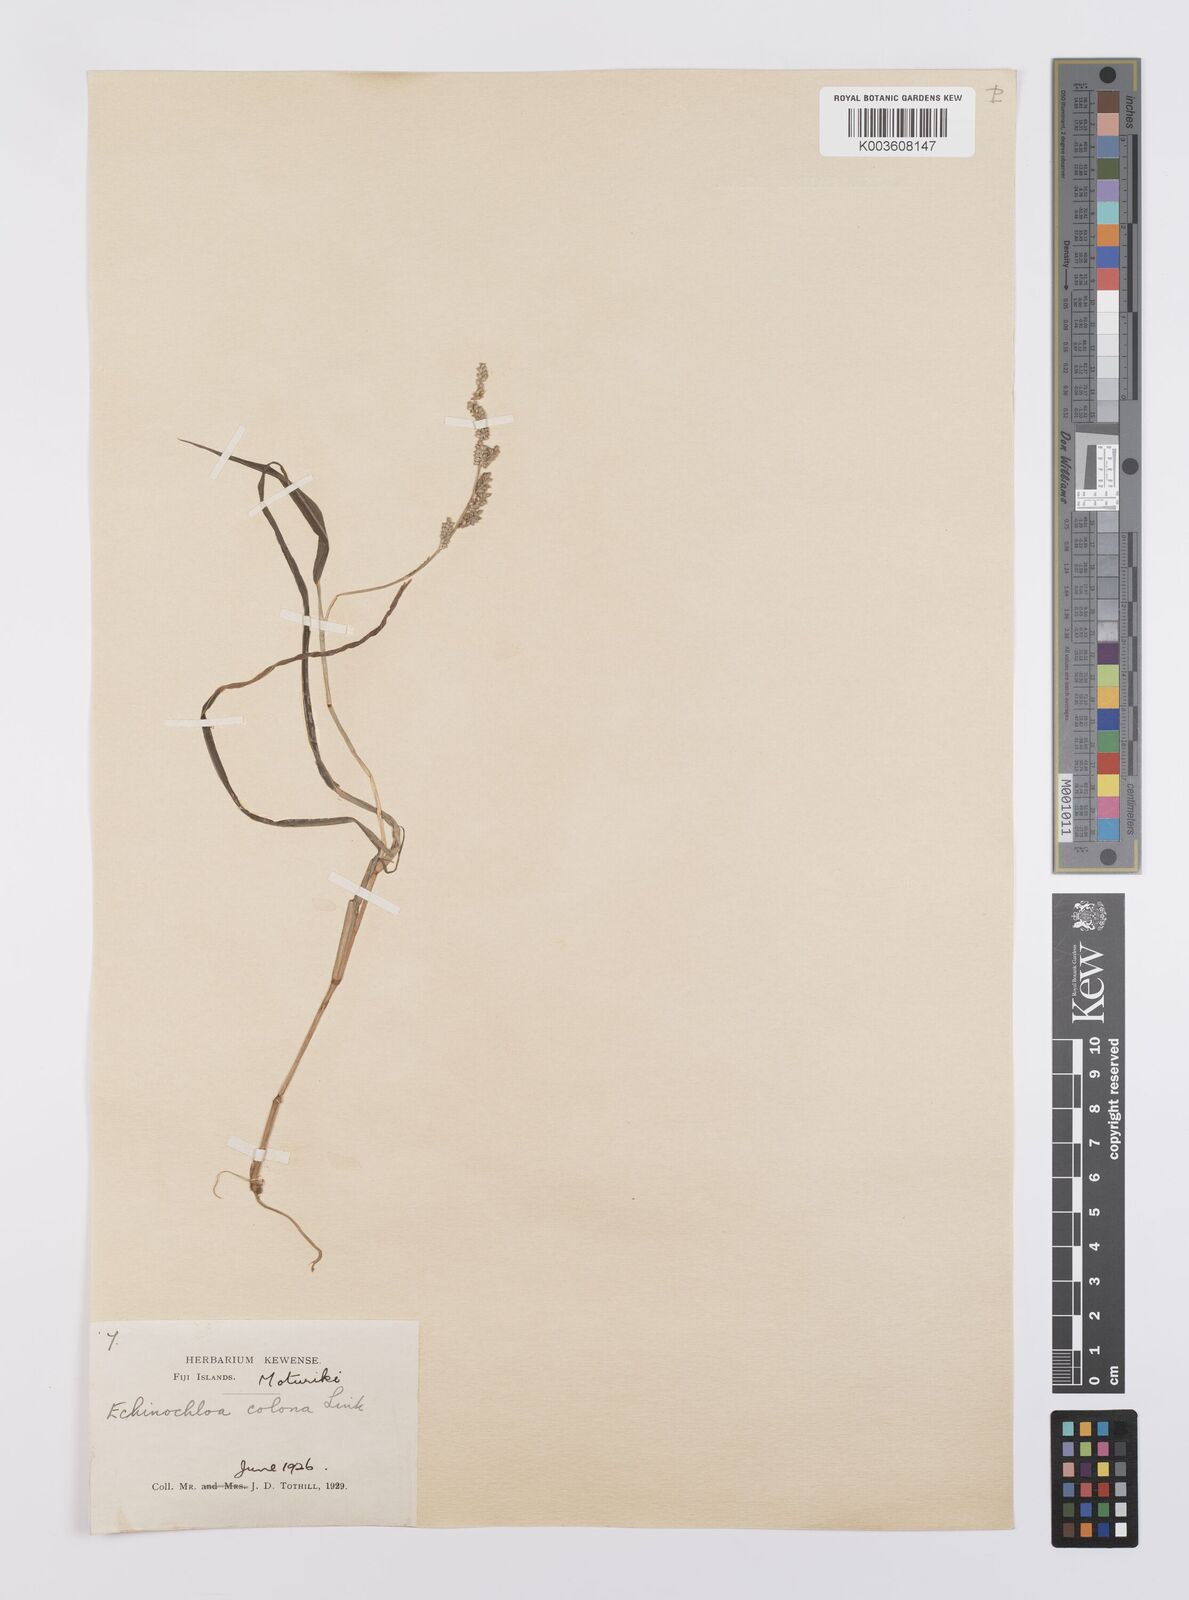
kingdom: Plantae
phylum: Tracheophyta
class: Liliopsida
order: Poales
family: Poaceae
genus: Echinochloa
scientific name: Echinochloa colonum
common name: Jungle rice
